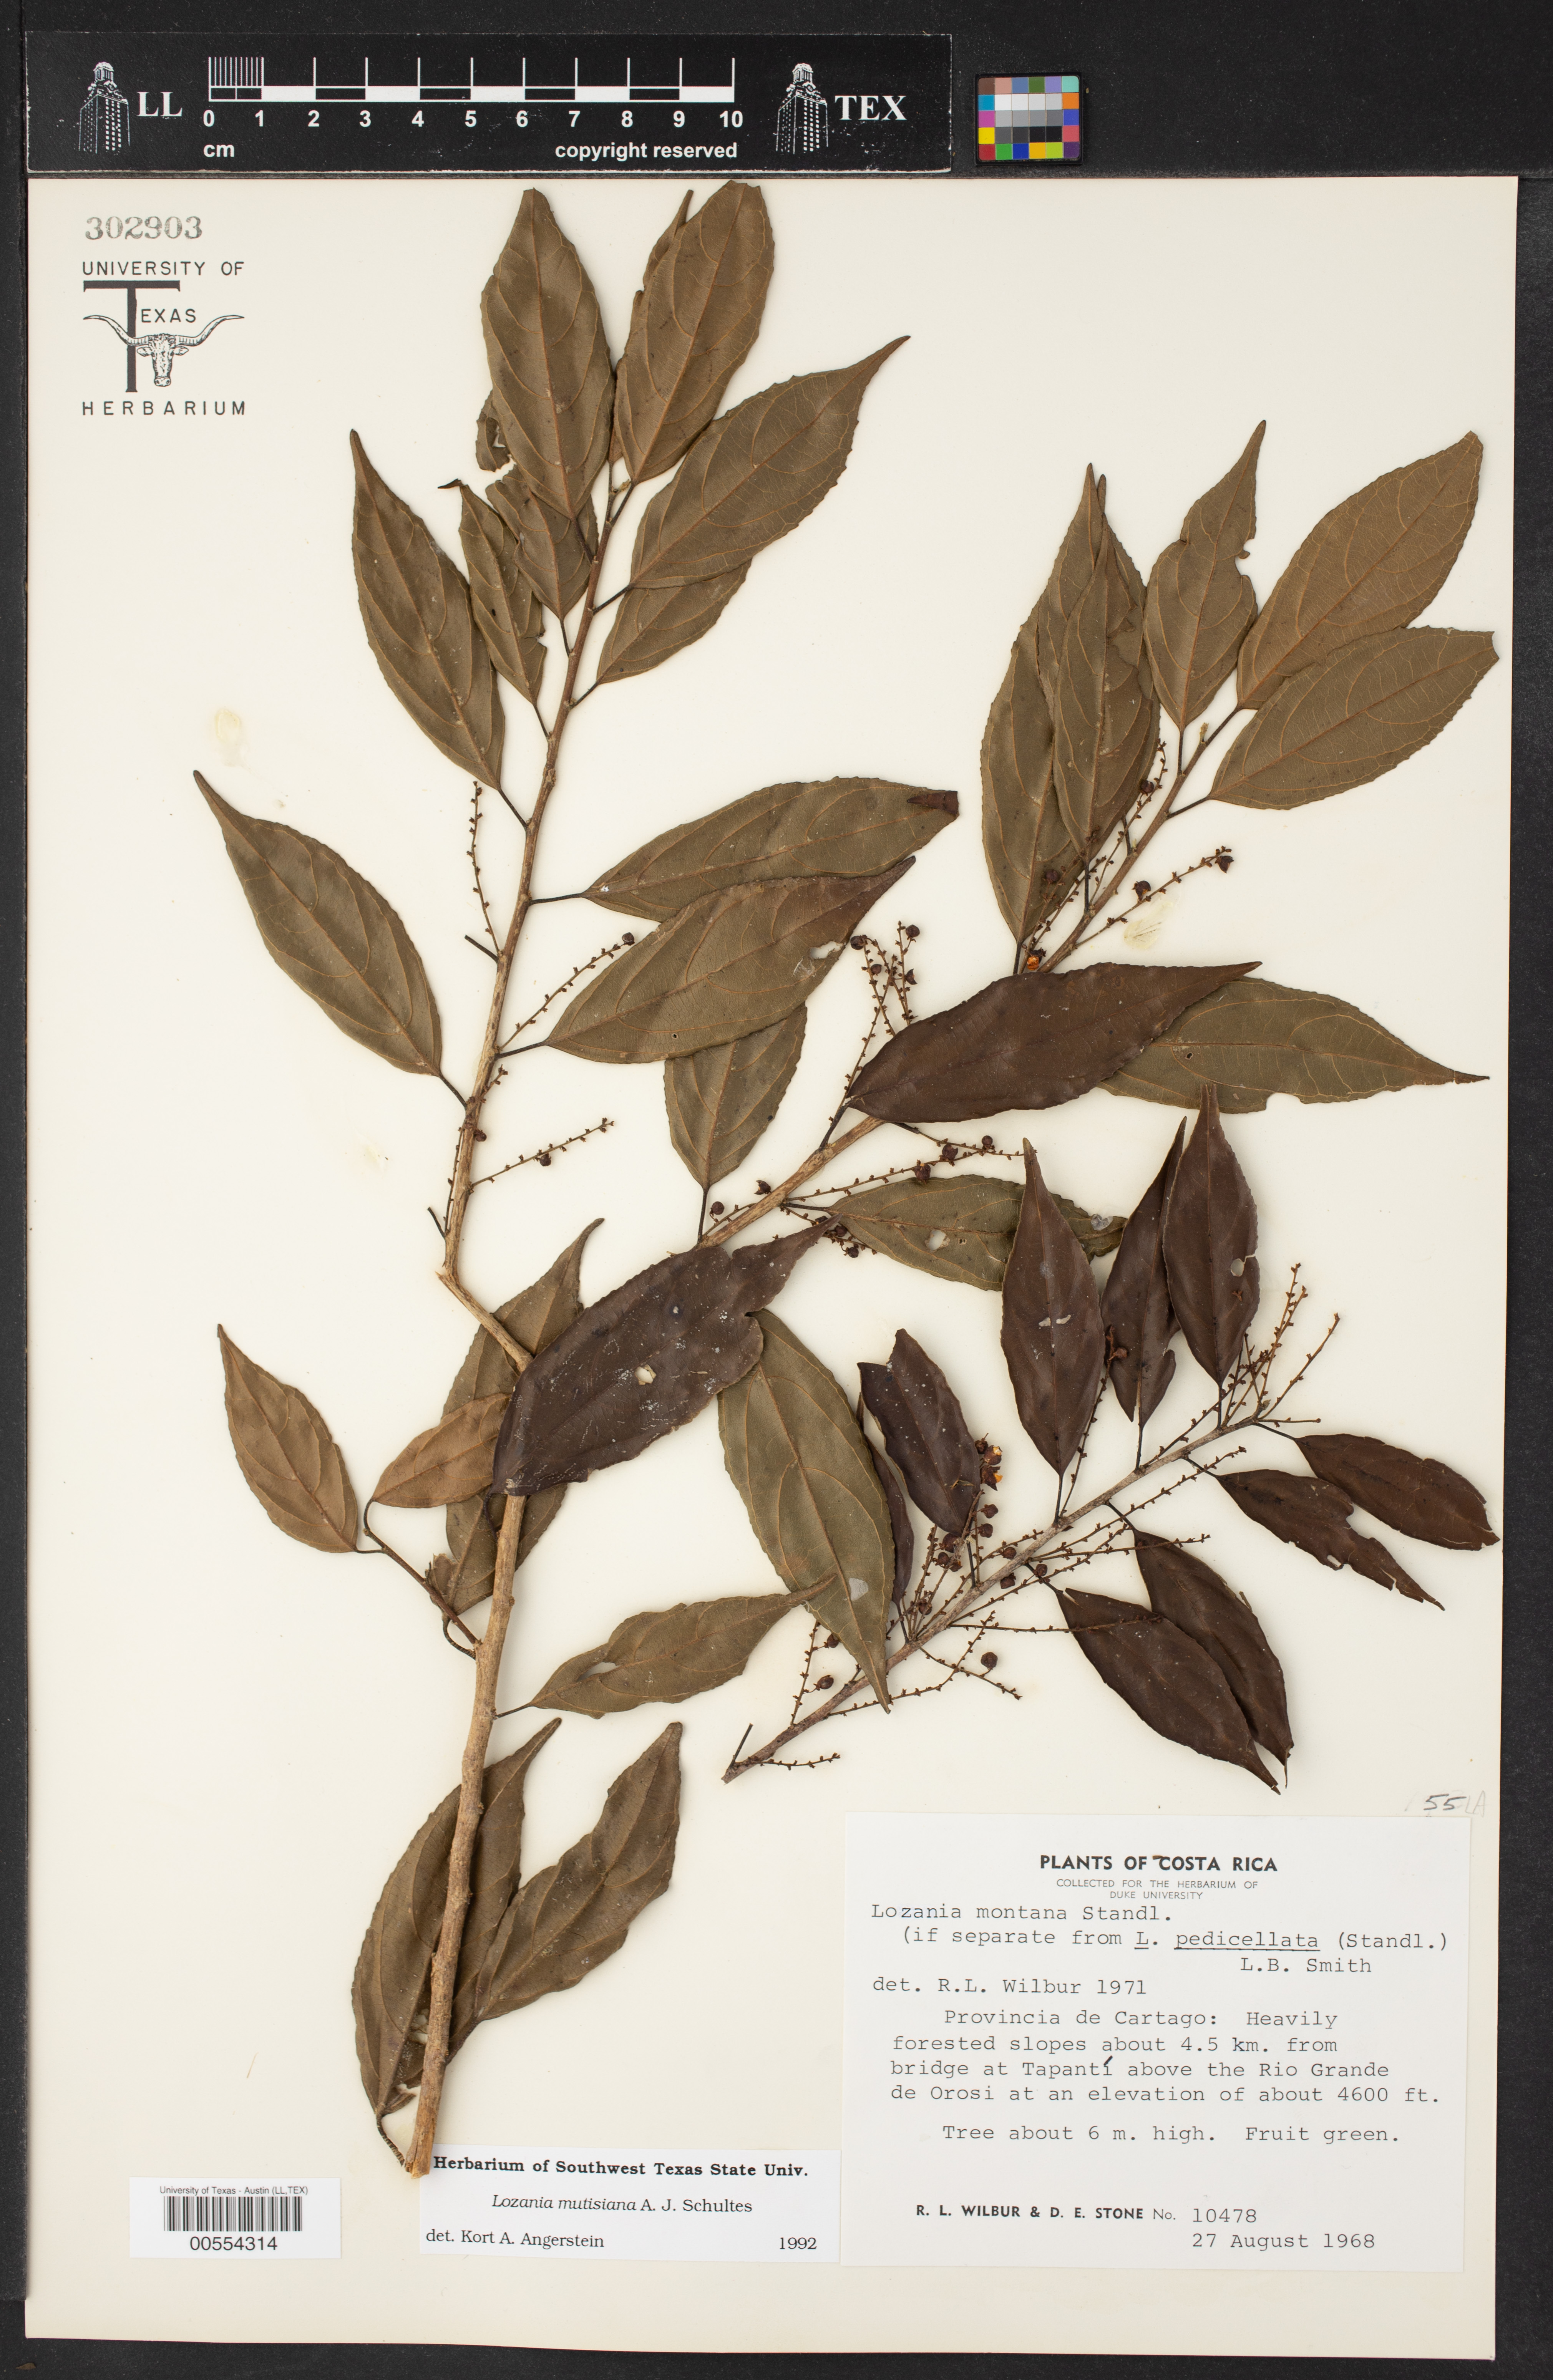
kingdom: Plantae
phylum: Tracheophyta
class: Magnoliopsida
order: Malpighiales
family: Lacistemataceae
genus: Lozania
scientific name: Lozania mutisiana
